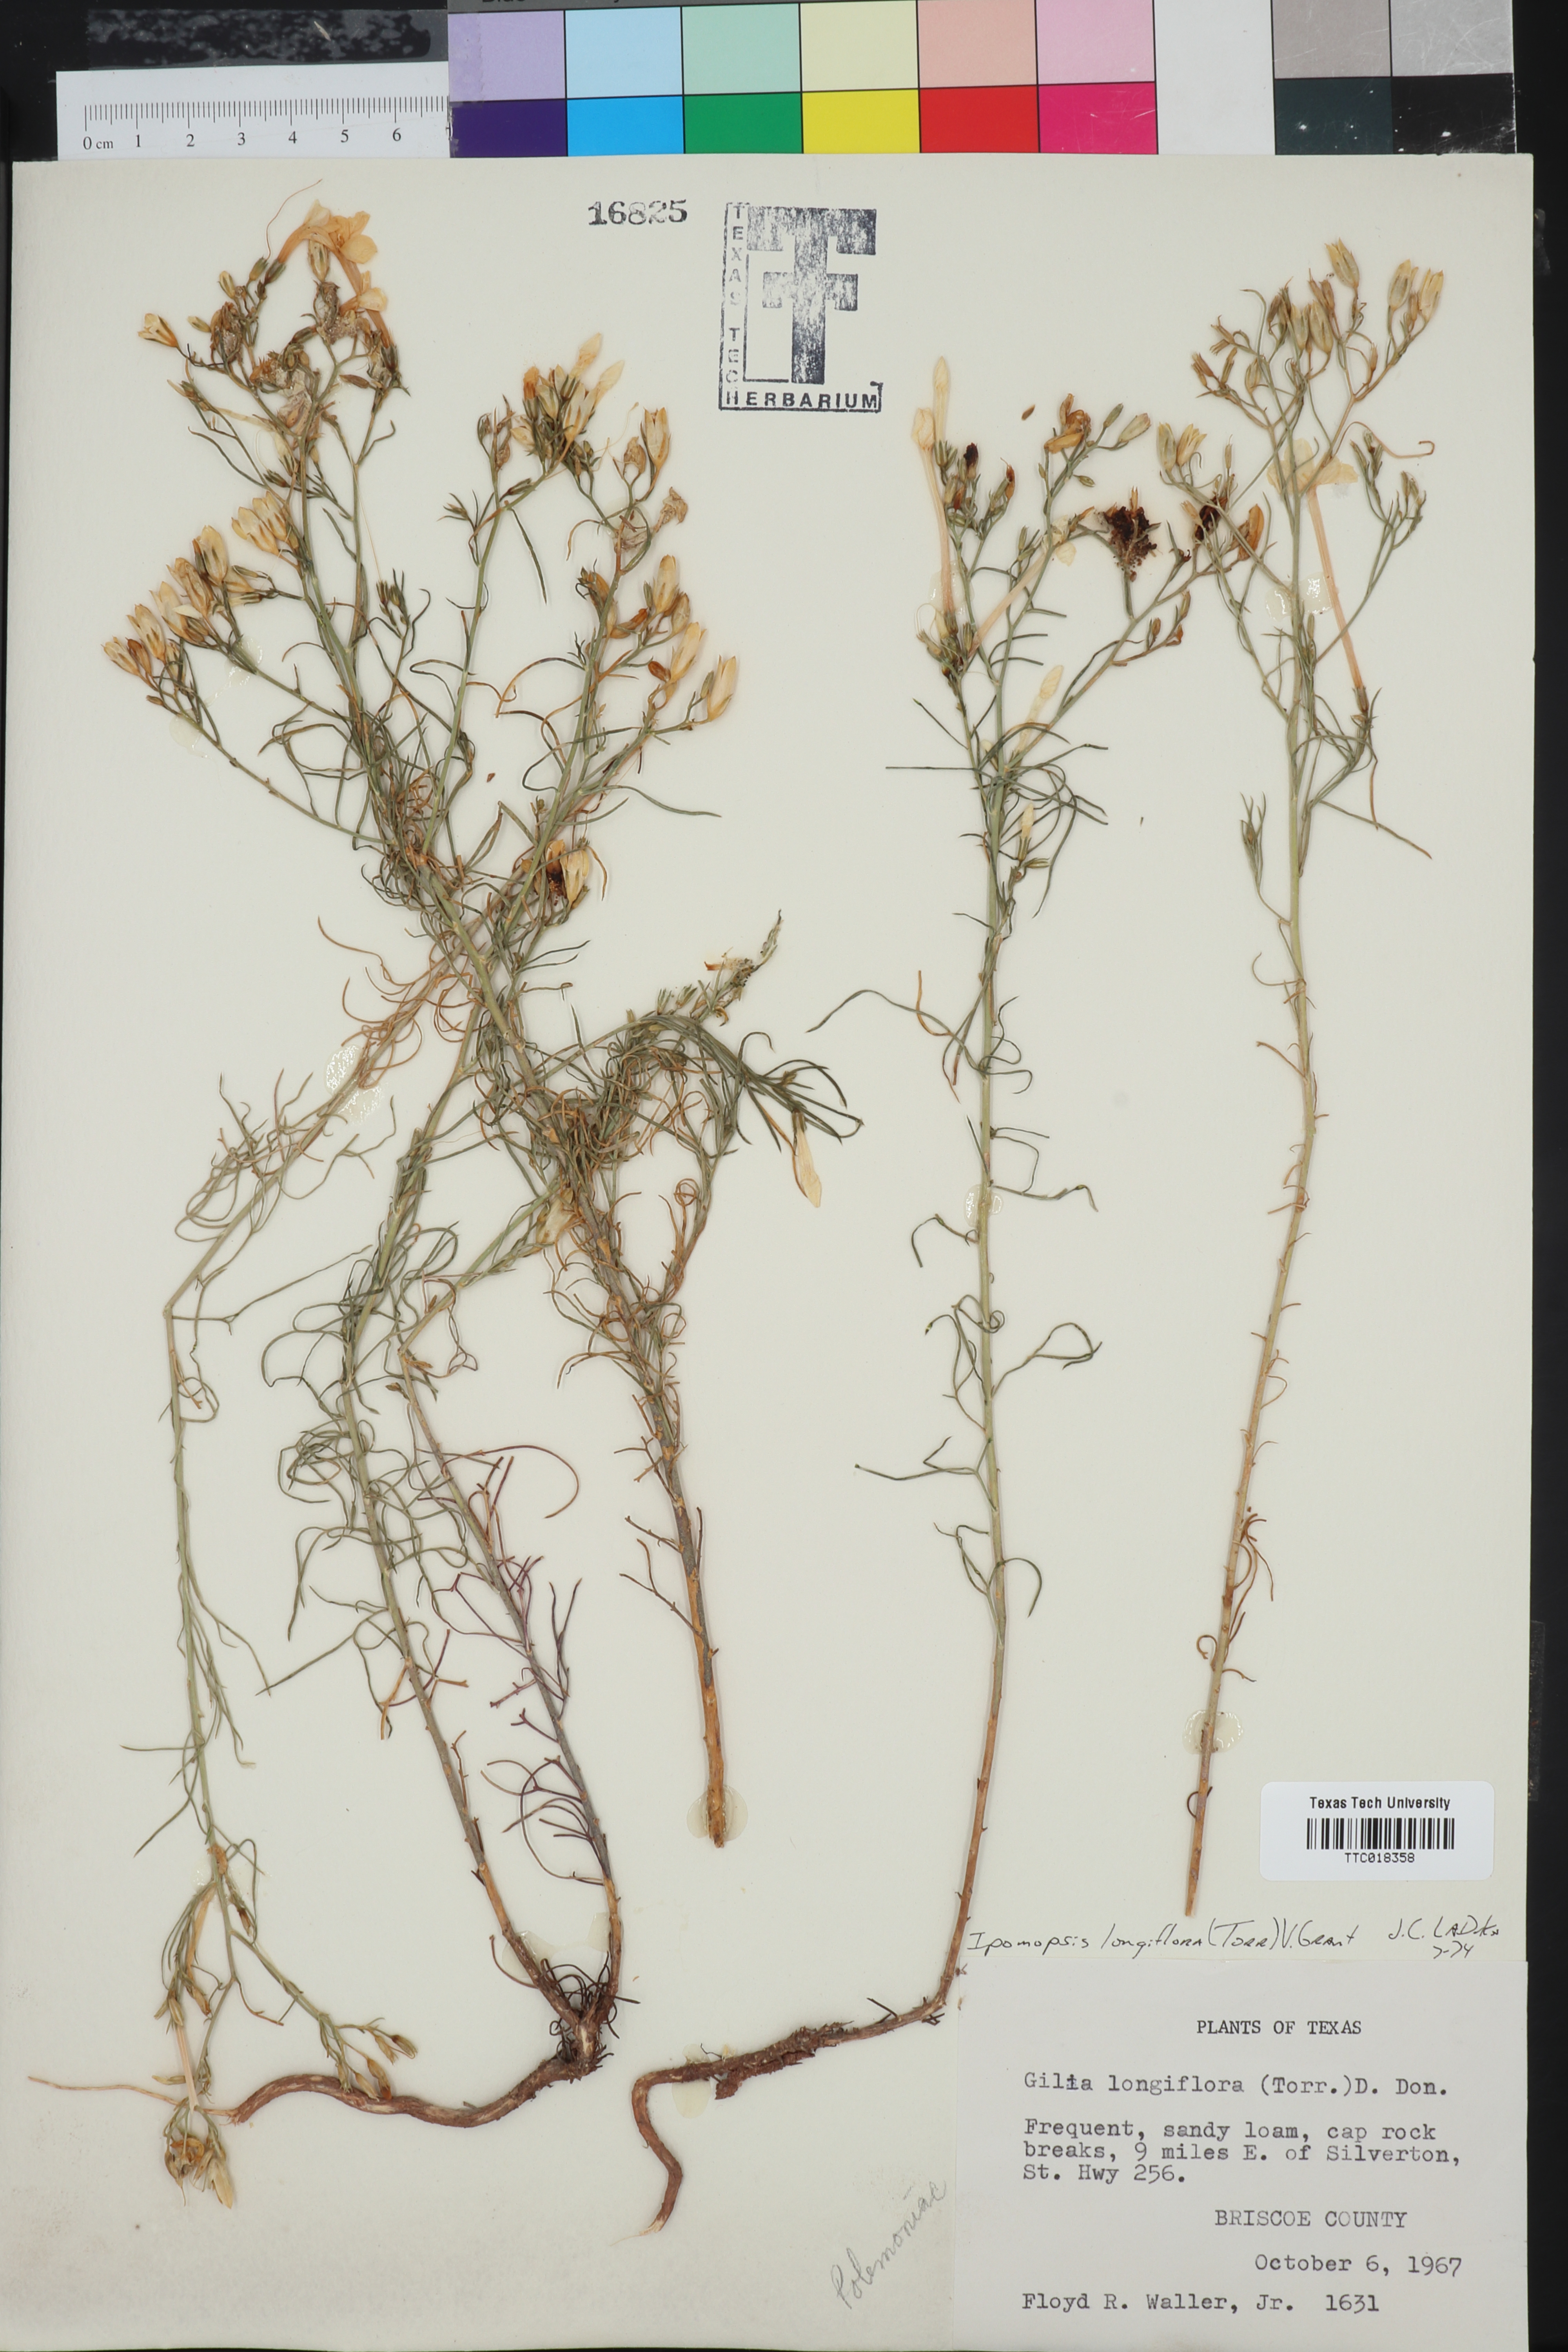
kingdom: Plantae
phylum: Tracheophyta
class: Magnoliopsida
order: Ericales
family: Polemoniaceae
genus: Ipomopsis
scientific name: Ipomopsis longiflora
